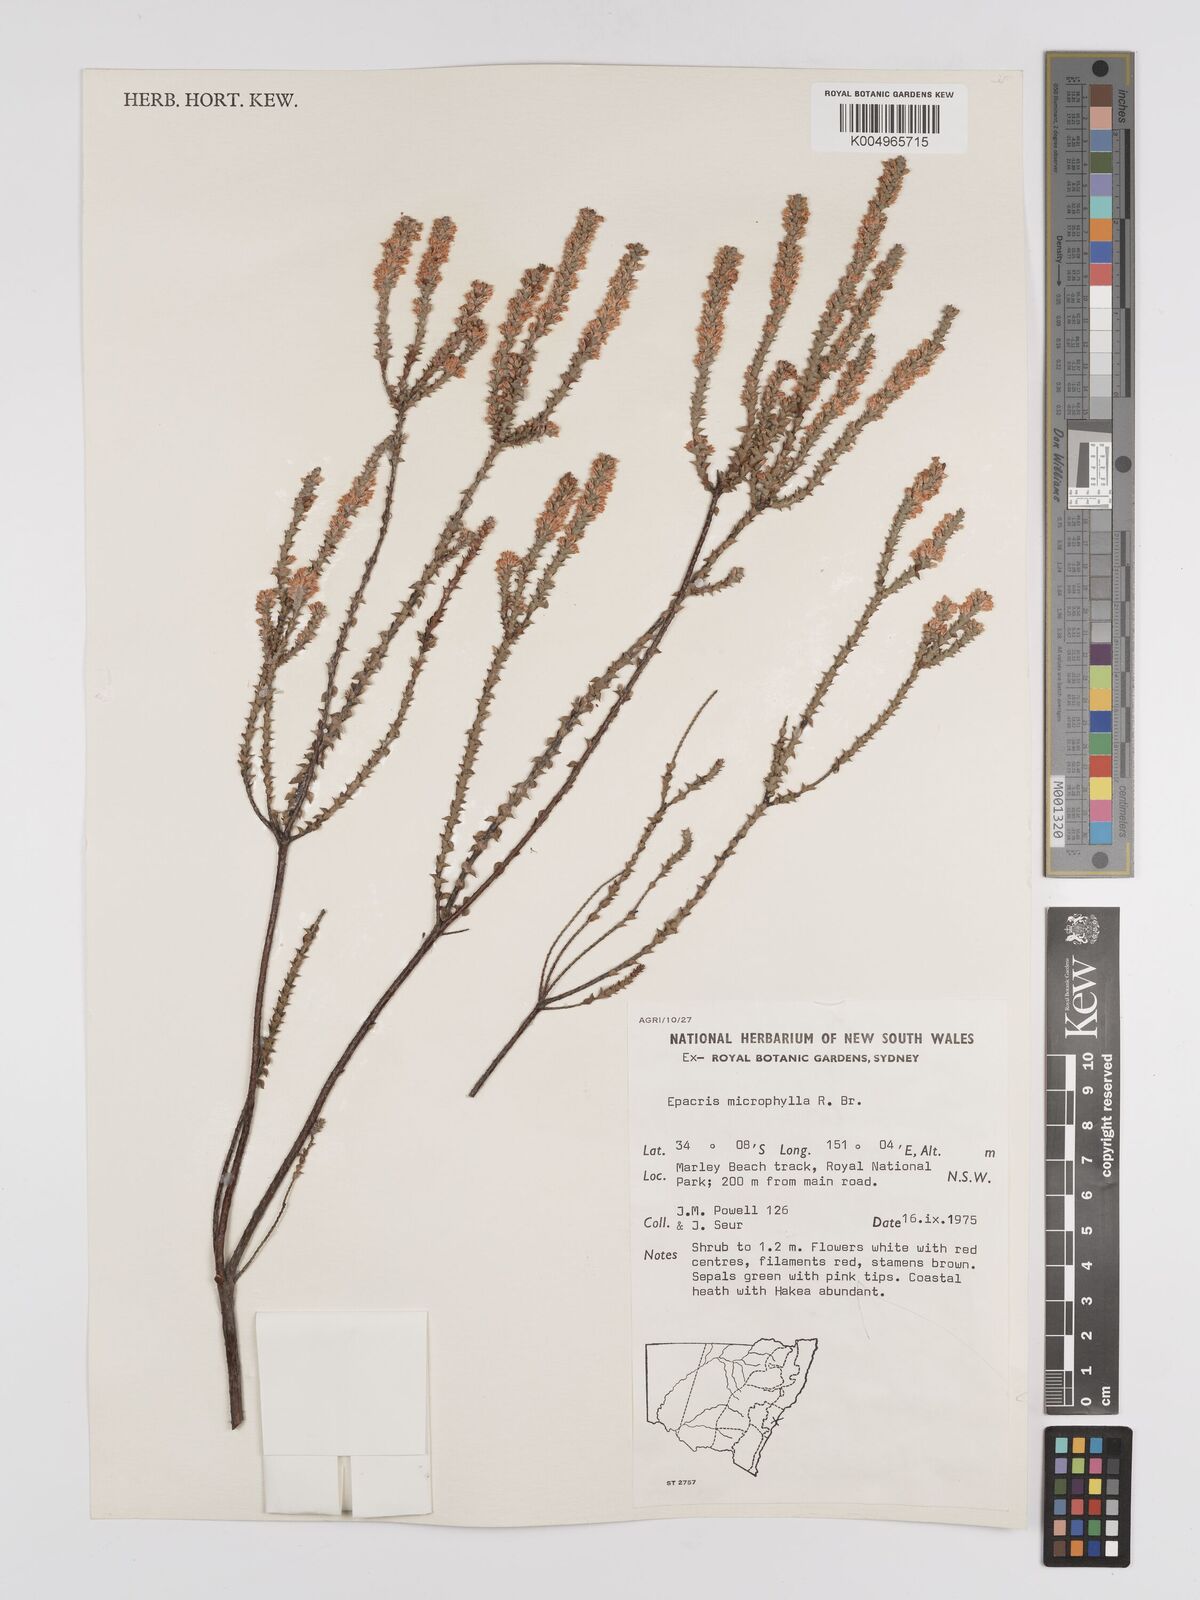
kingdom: Plantae
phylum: Tracheophyta
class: Magnoliopsida
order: Ericales
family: Ericaceae
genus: Epacris
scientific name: Epacris
